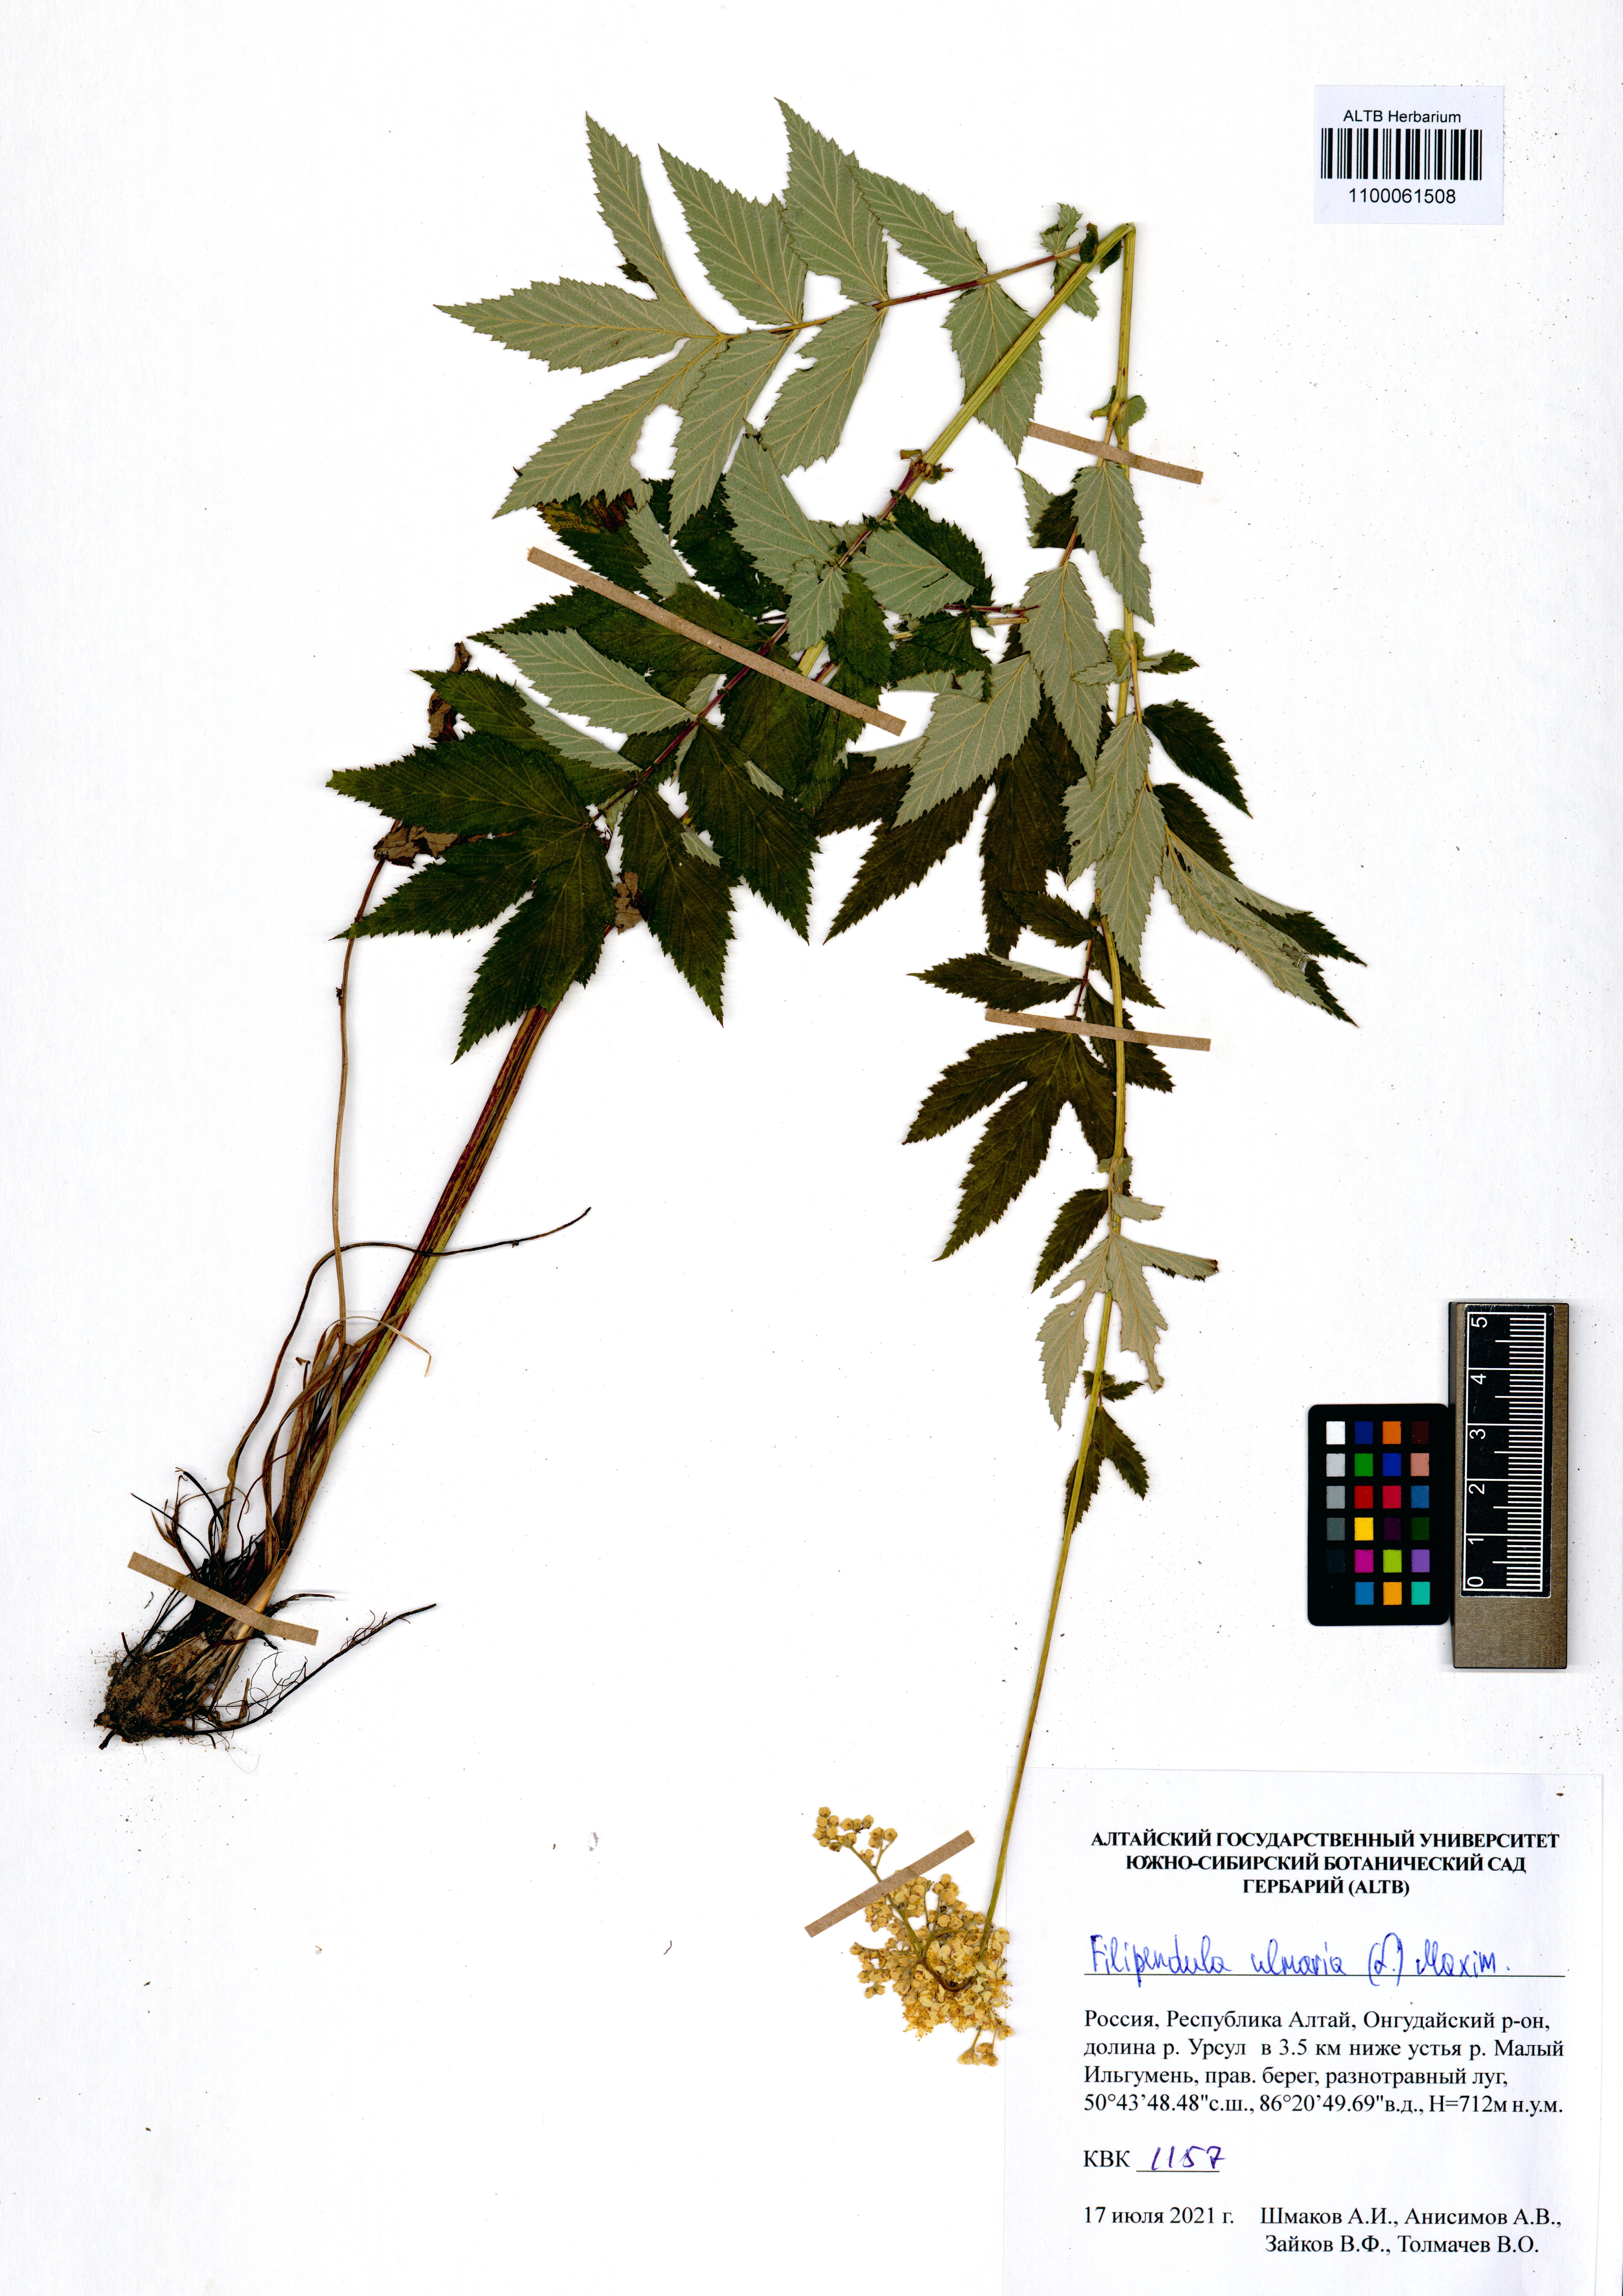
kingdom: Plantae
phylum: Tracheophyta
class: Magnoliopsida
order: Rosales
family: Rosaceae
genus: Filipendula
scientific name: Filipendula ulmaria
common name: Meadowsweet
